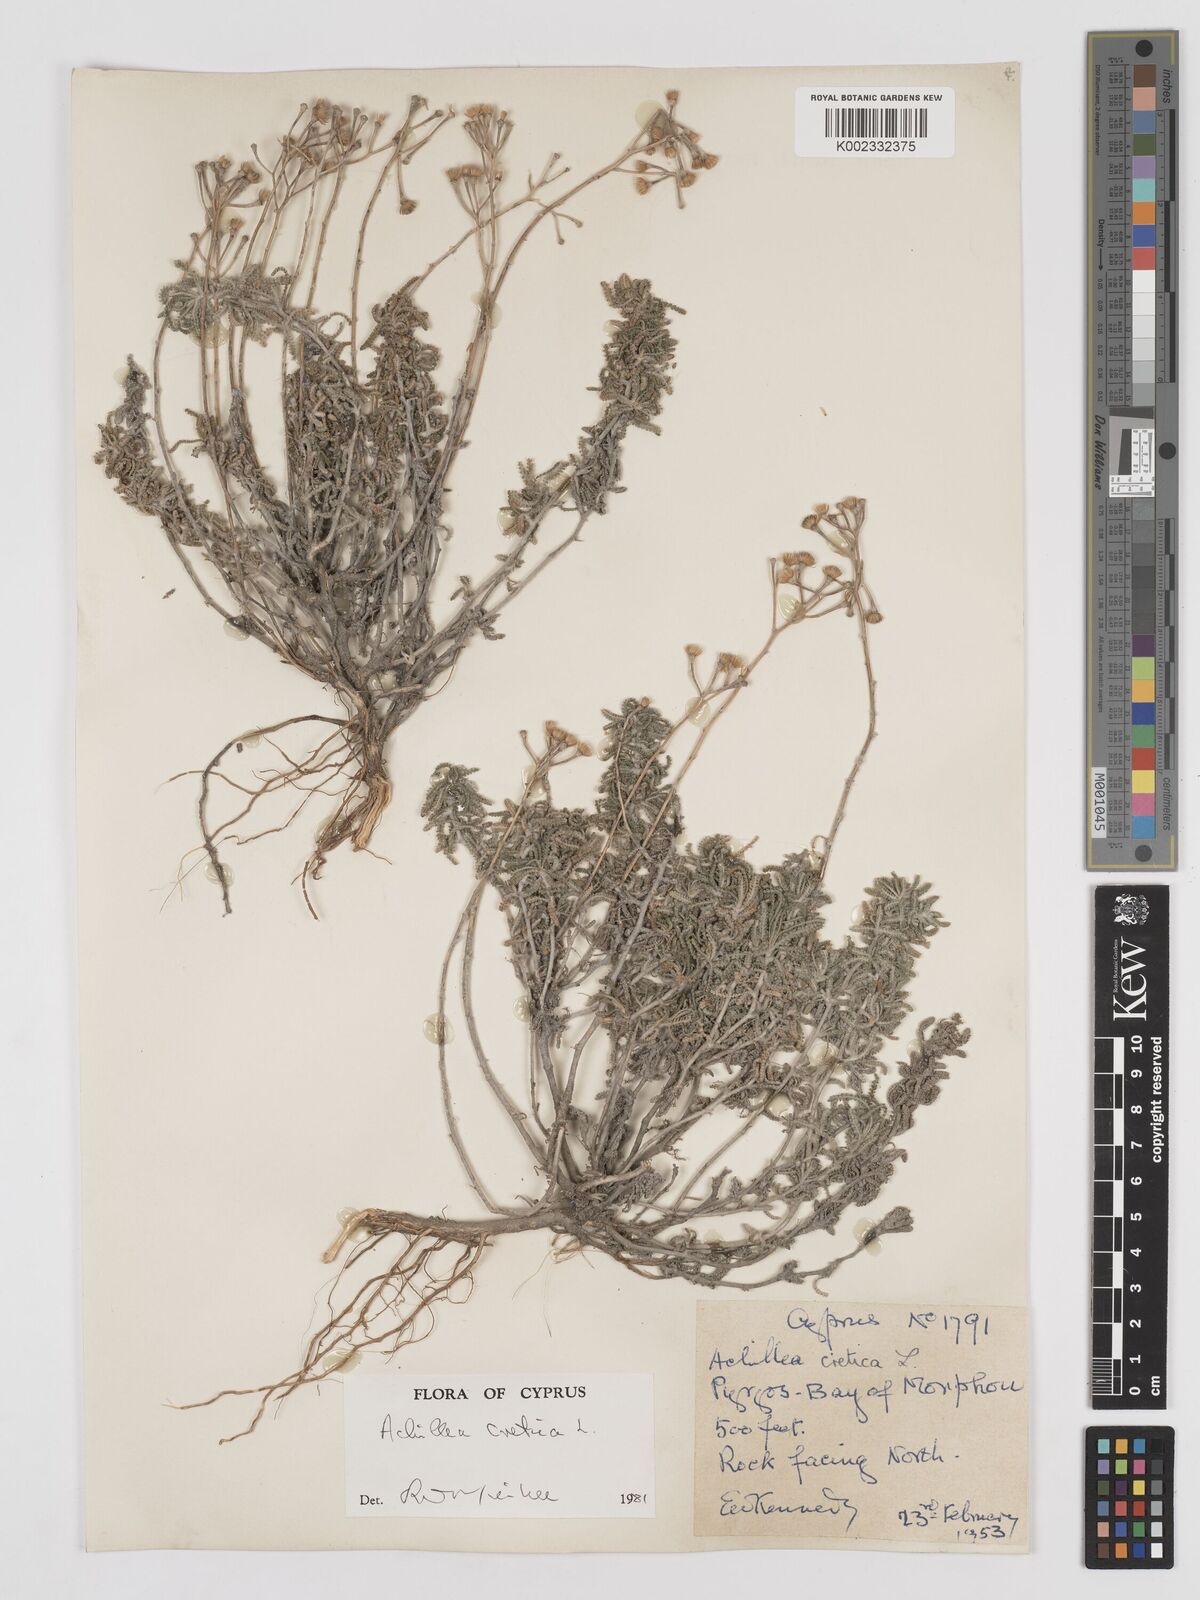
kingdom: Plantae
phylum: Tracheophyta
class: Magnoliopsida
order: Asterales
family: Asteraceae
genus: Achillea
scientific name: Achillea cretica
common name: Chamomile-leaved lavender-cotton
